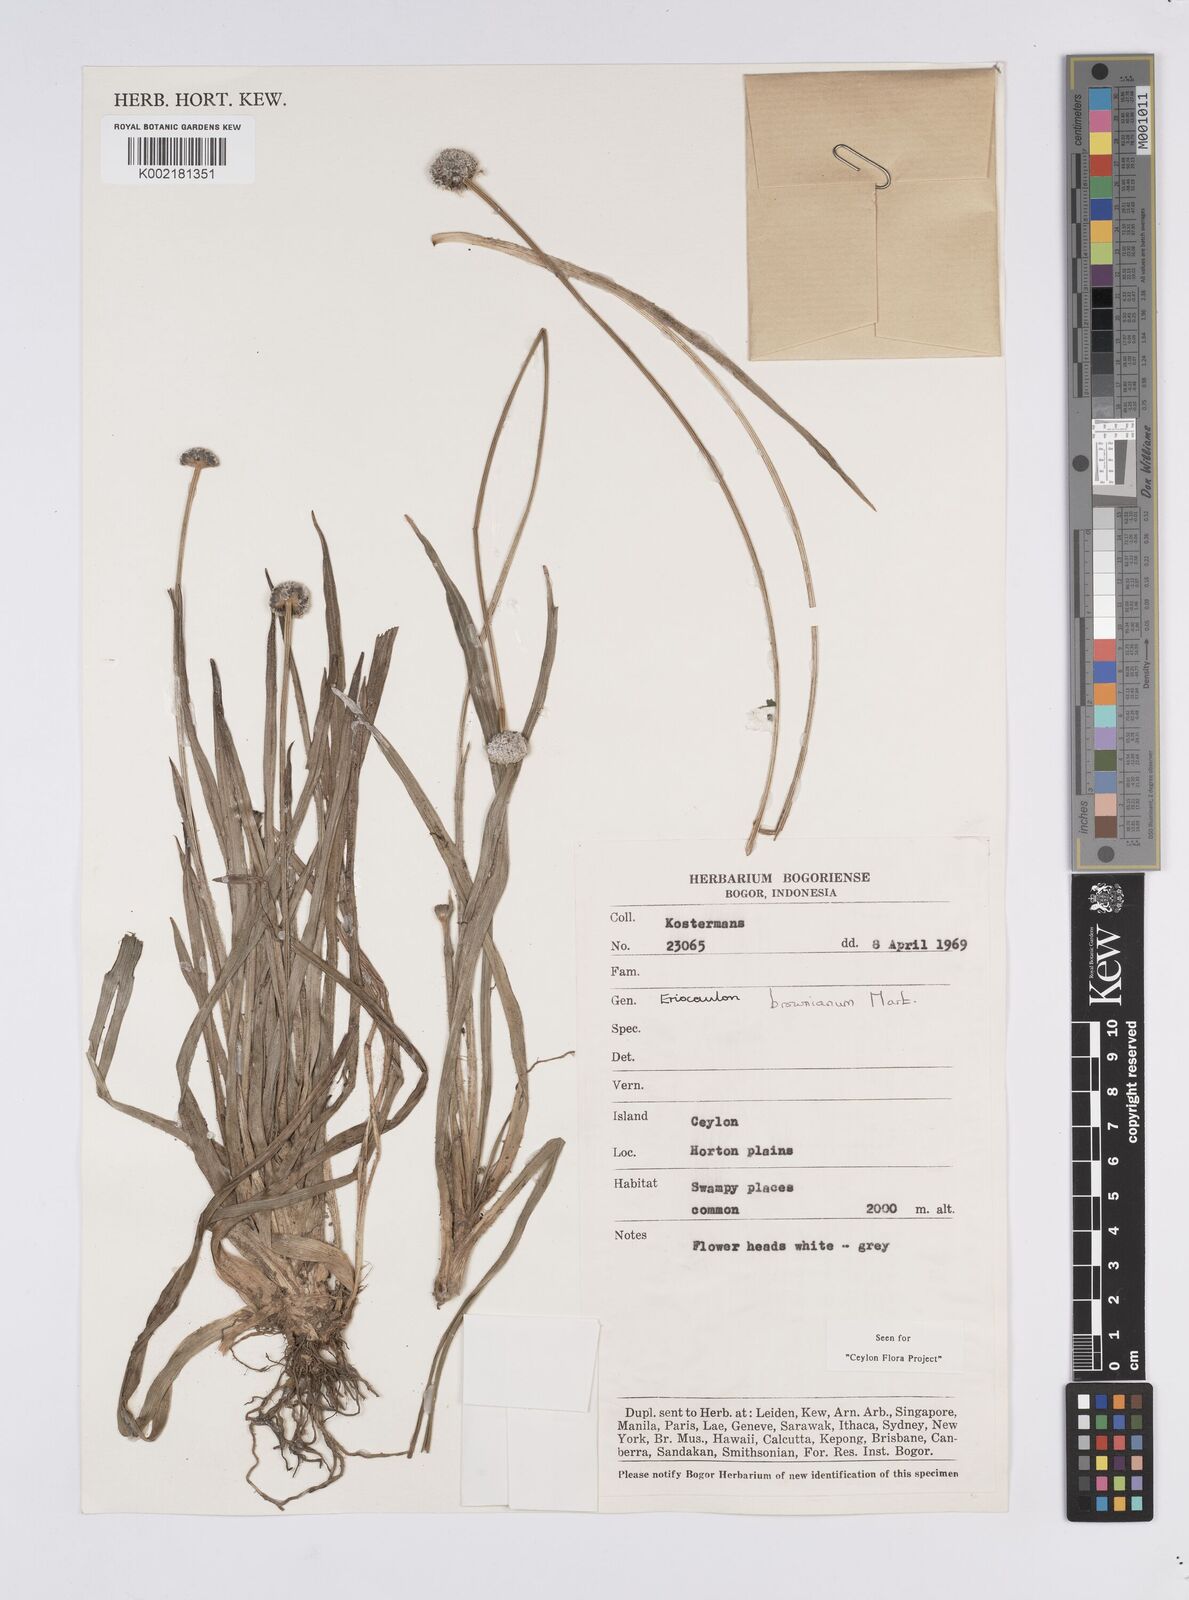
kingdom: Plantae
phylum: Tracheophyta
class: Liliopsida
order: Poales
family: Eriocaulaceae
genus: Eriocaulon
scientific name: Eriocaulon brownianum
